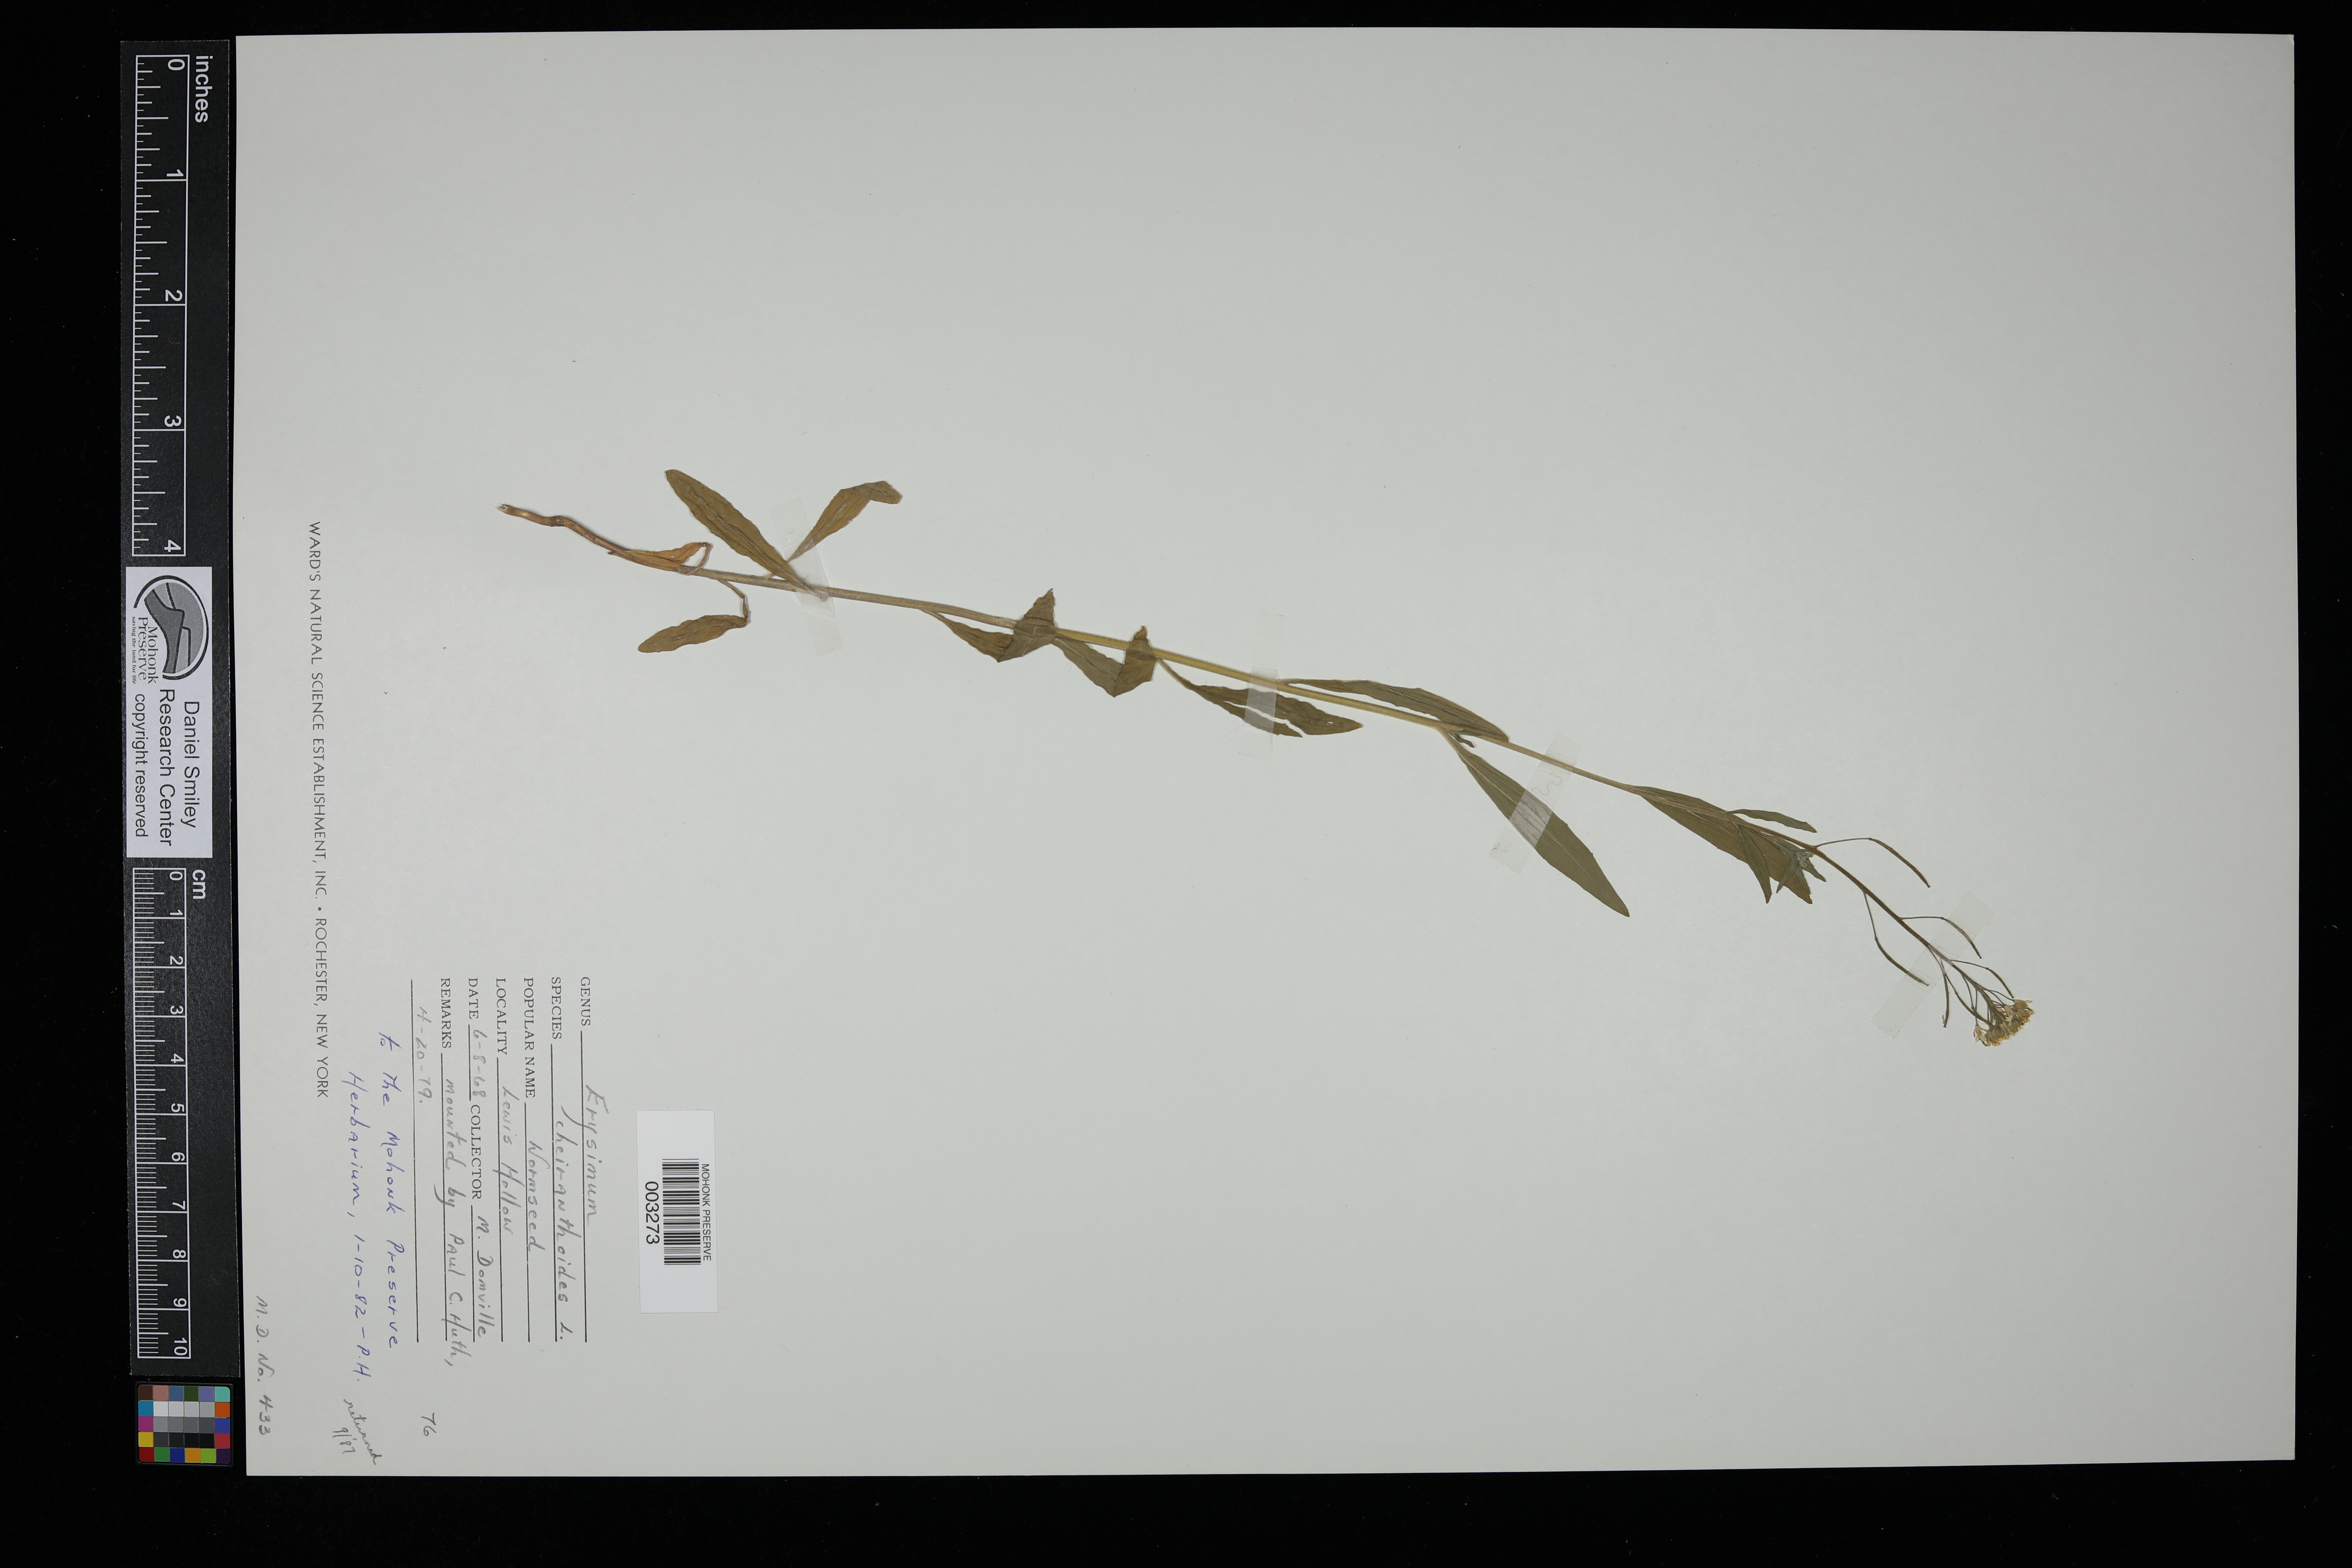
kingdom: Plantae
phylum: Tracheophyta
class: Magnoliopsida
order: Brassicales
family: Brassicaceae
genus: Erysimum
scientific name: Erysimum cheiranthoides
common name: Treacle mustard
